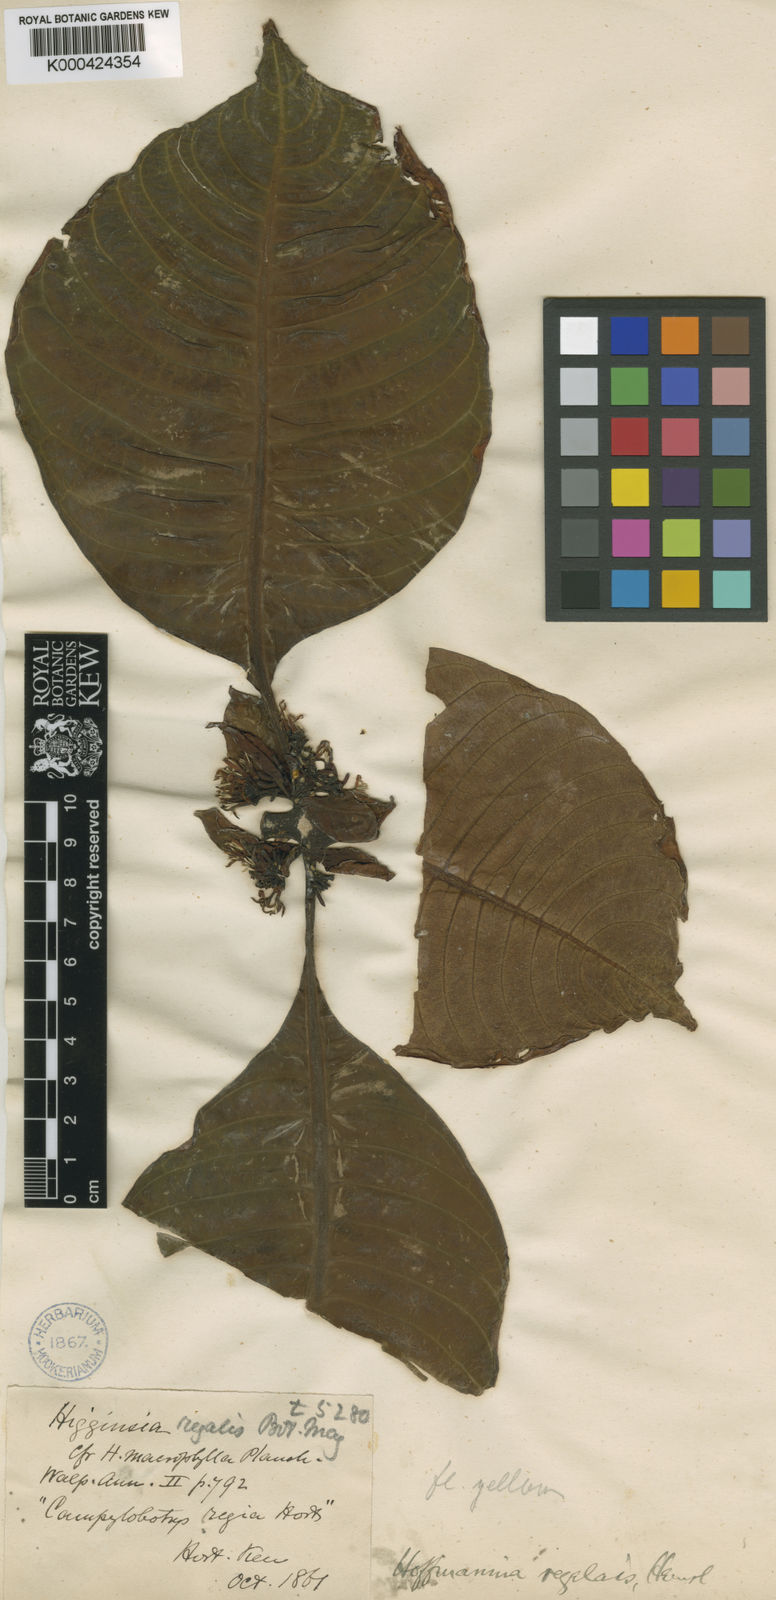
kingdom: Plantae
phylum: Tracheophyta
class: Magnoliopsida
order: Gentianales
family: Rubiaceae
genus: Hoffmannia
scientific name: Hoffmannia regalis
